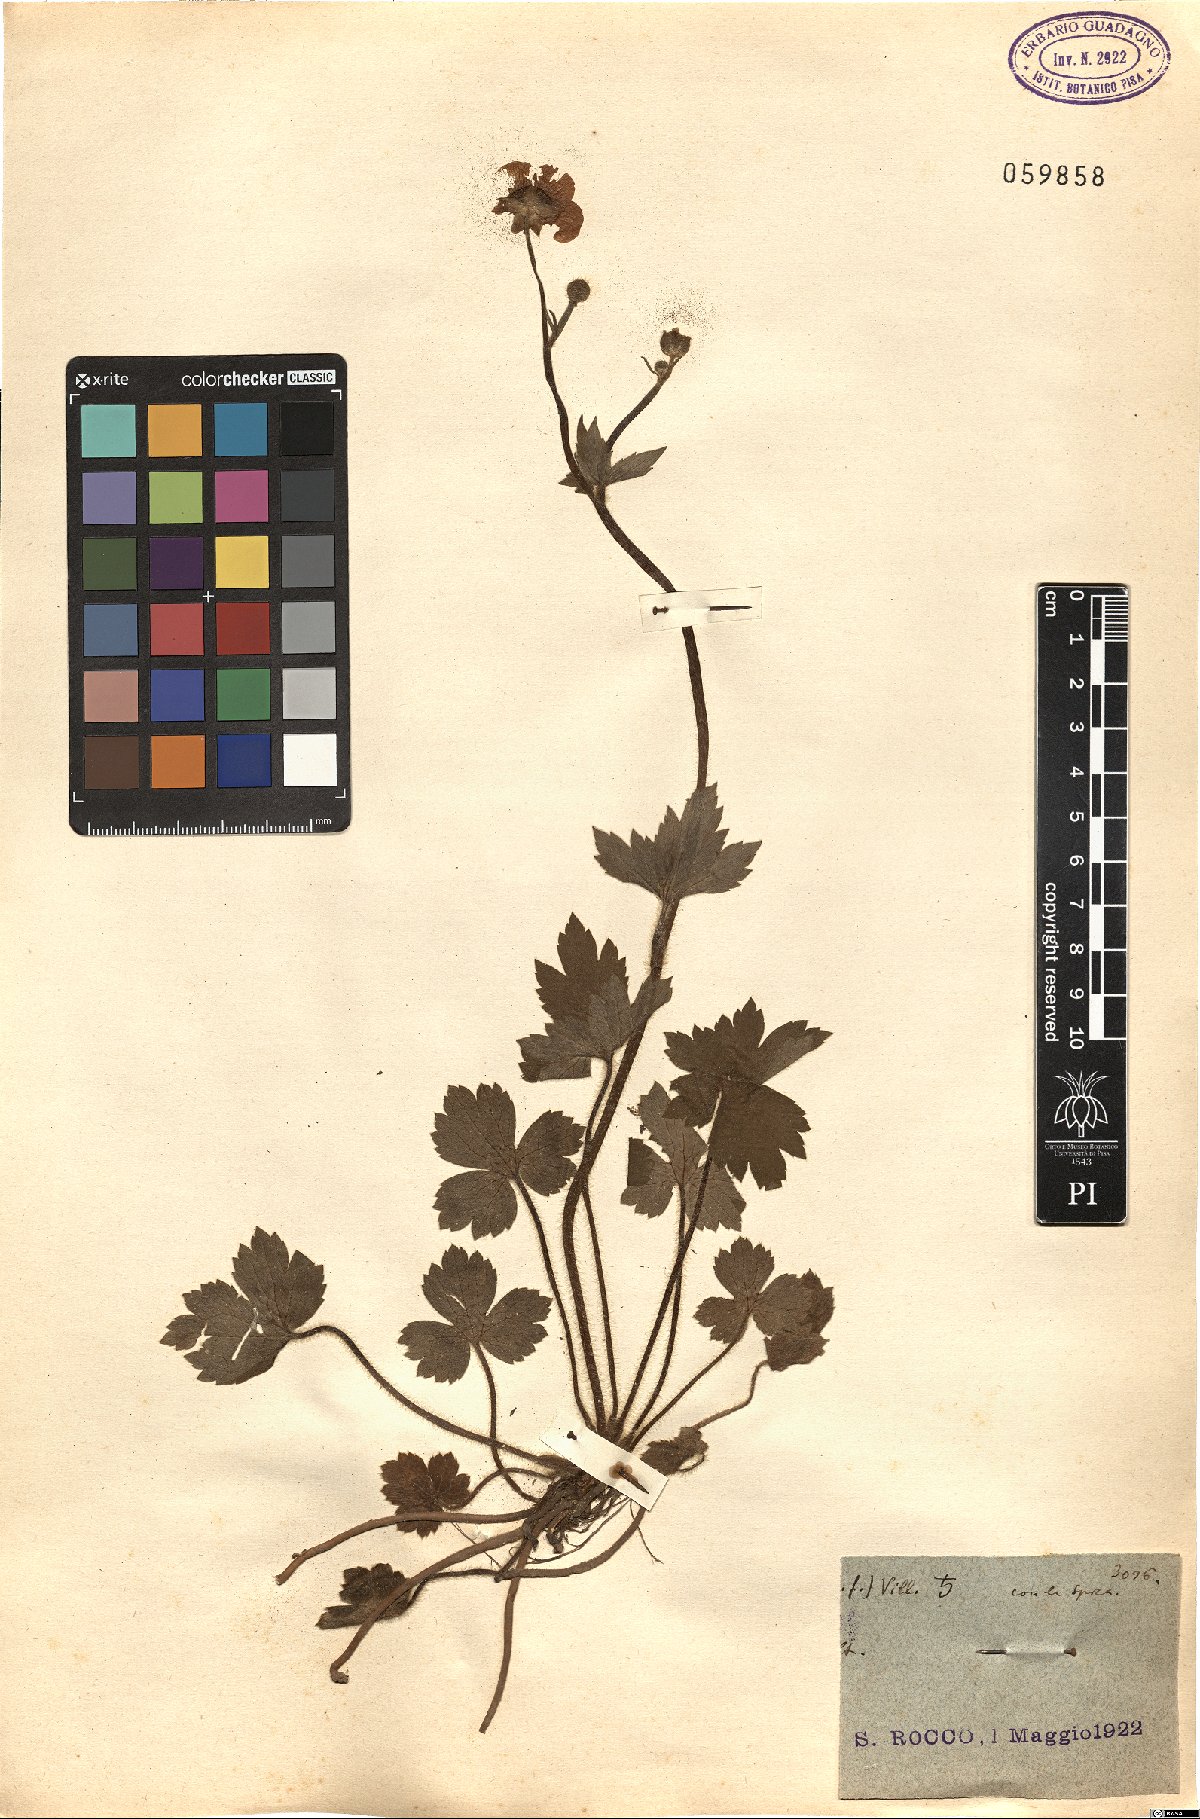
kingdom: Plantae
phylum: Tracheophyta
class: Magnoliopsida
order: Ranunculales
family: Ranunculaceae
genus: Ranunculus
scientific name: Ranunculus
